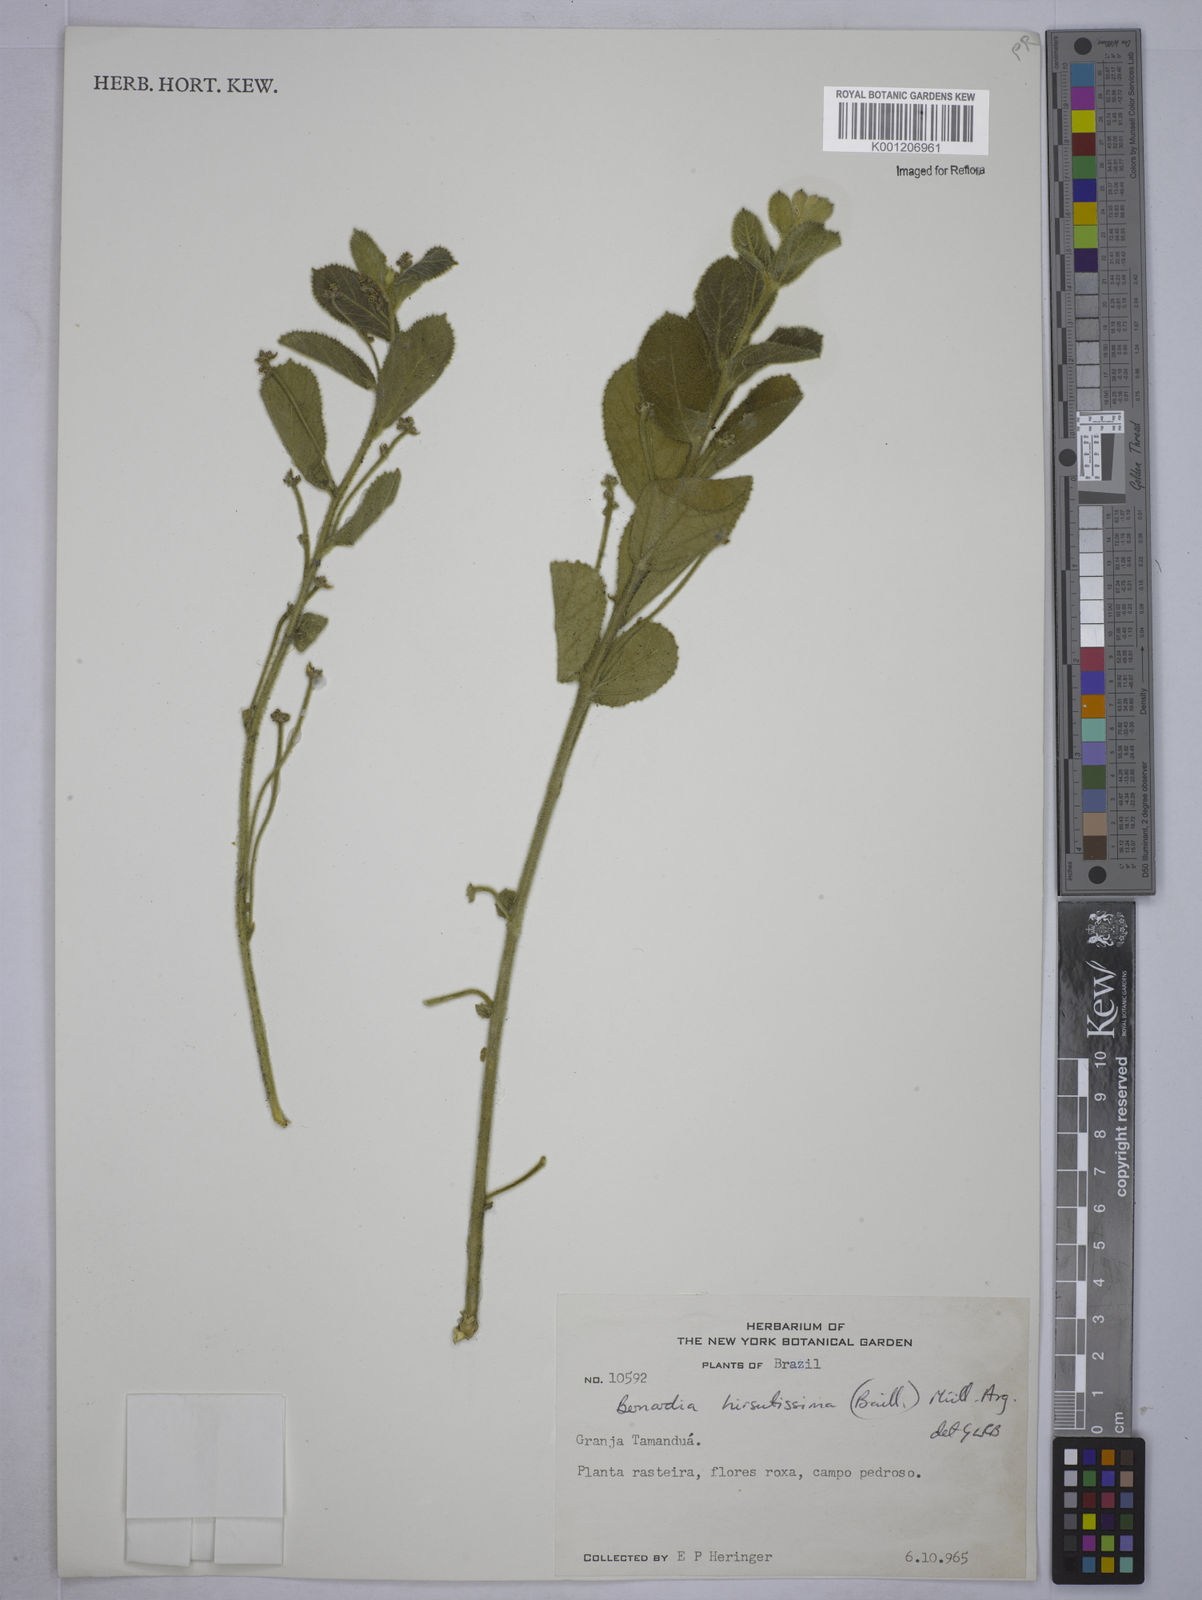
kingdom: Plantae
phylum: Tracheophyta
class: Magnoliopsida
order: Malpighiales
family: Euphorbiaceae
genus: Bernardia
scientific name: Bernardia
